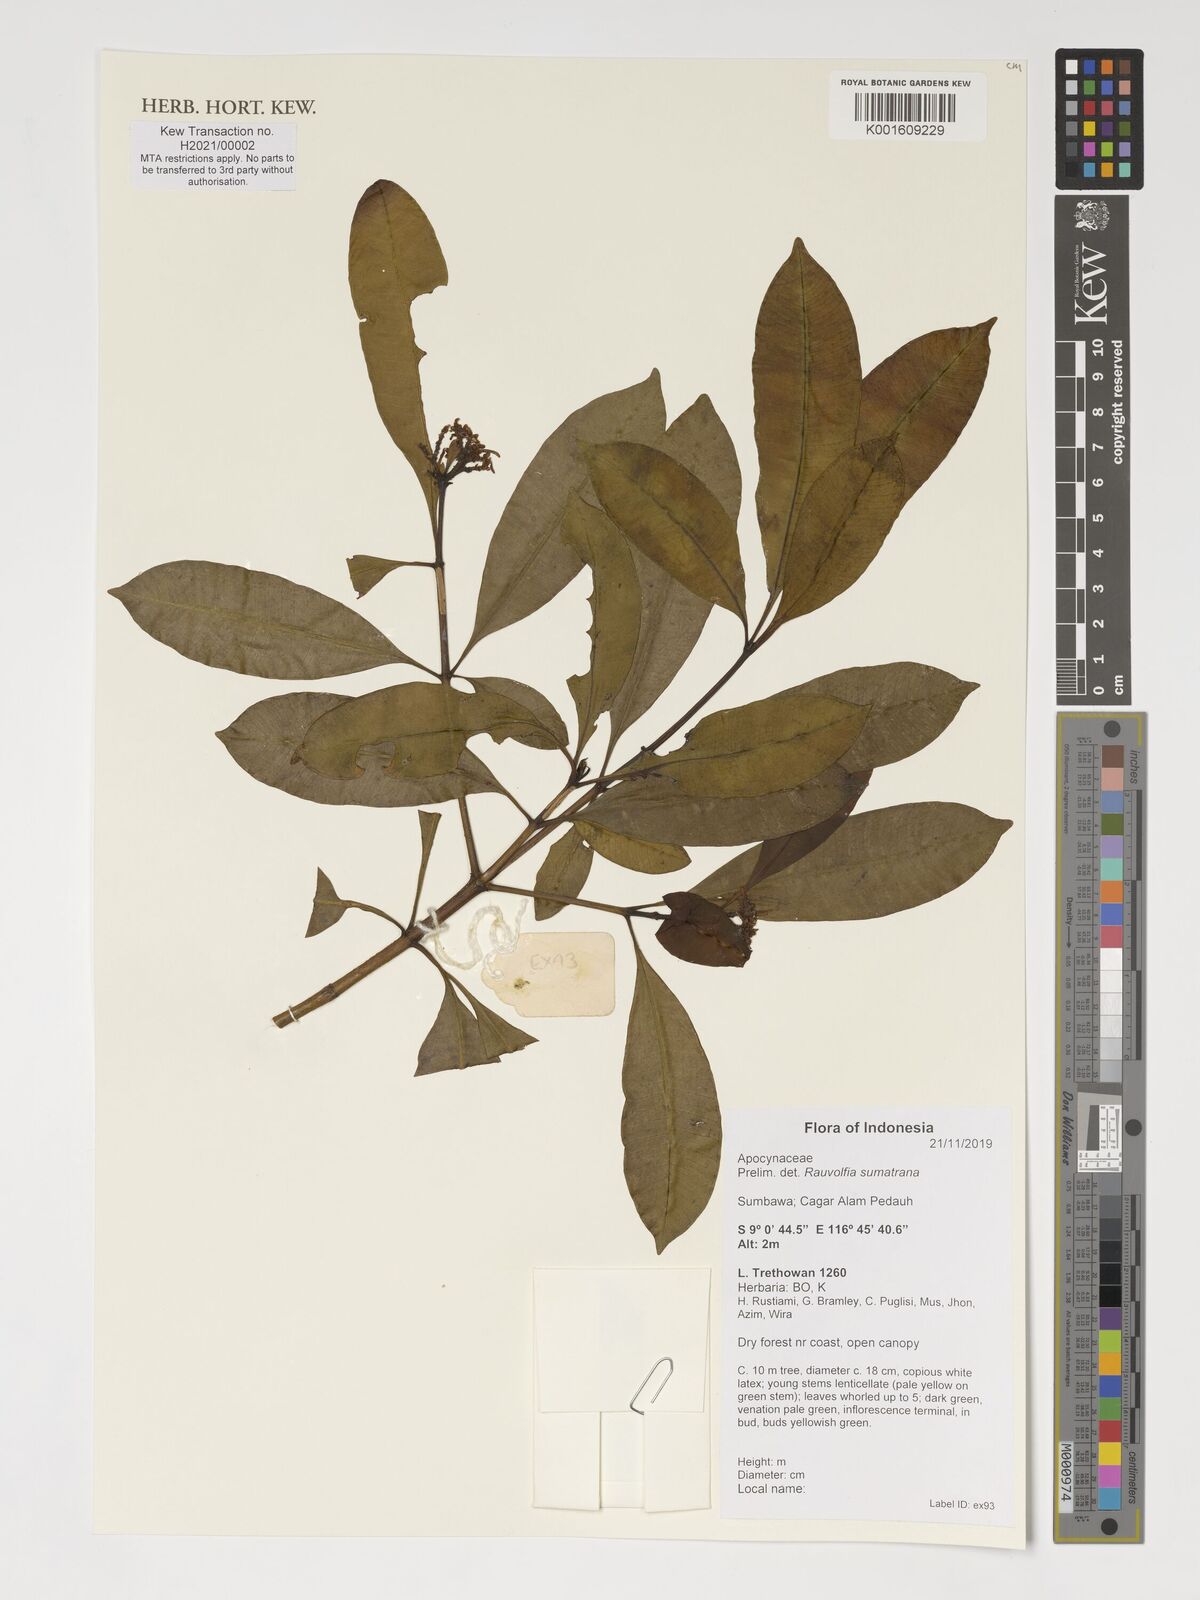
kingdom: Plantae
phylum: Tracheophyta
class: Magnoliopsida
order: Gentianales
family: Apocynaceae
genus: Rauvolfia
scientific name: Rauvolfia sumatrana
